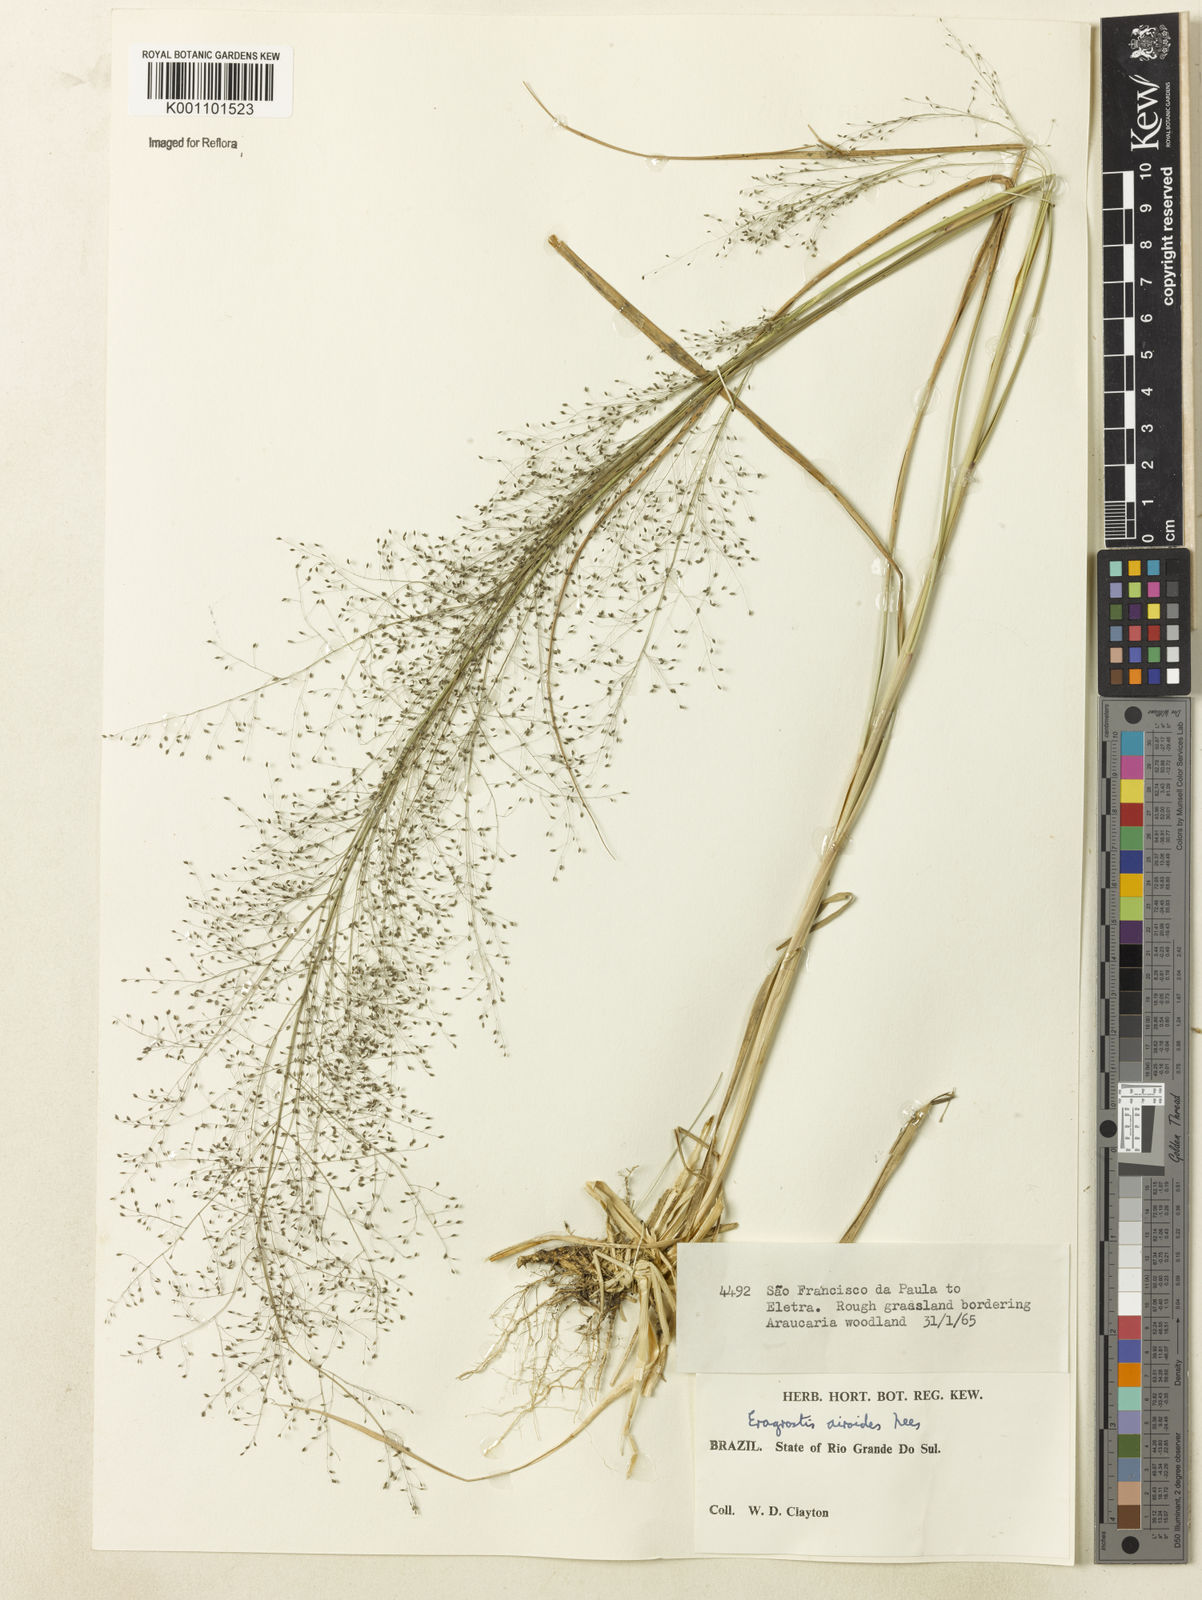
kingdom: Plantae
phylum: Tracheophyta
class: Liliopsida
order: Poales
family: Poaceae
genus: Eragrostis
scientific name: Eragrostis airoides
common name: Darnel lovegrass
